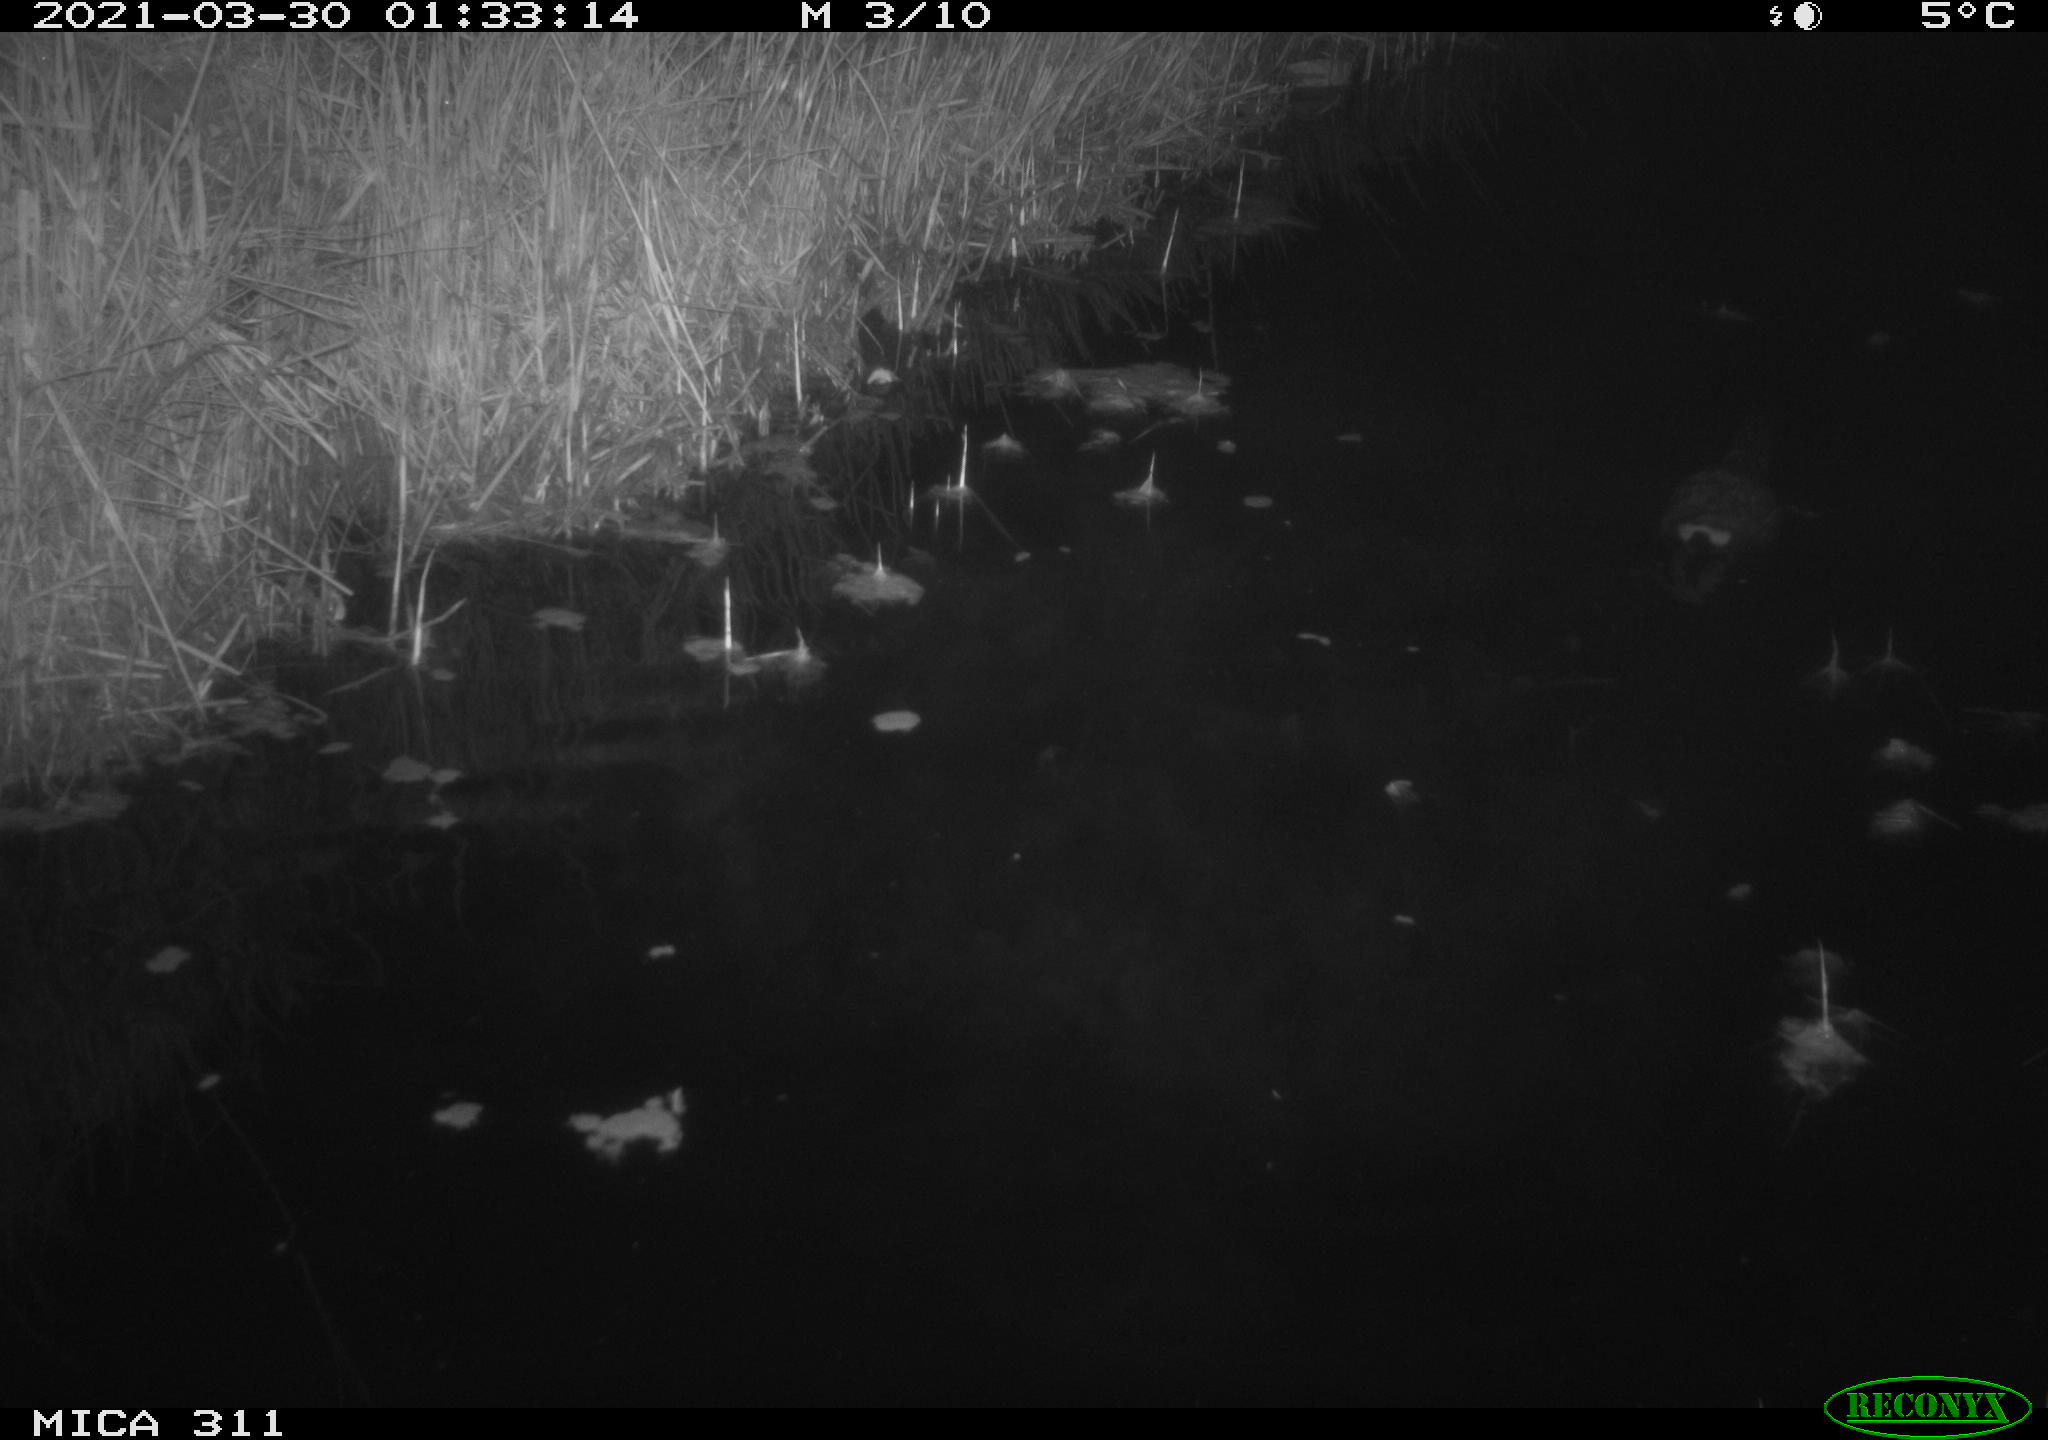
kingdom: Animalia
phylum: Chordata
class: Aves
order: Gruiformes
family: Rallidae
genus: Gallinula
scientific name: Gallinula chloropus
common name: Common moorhen
